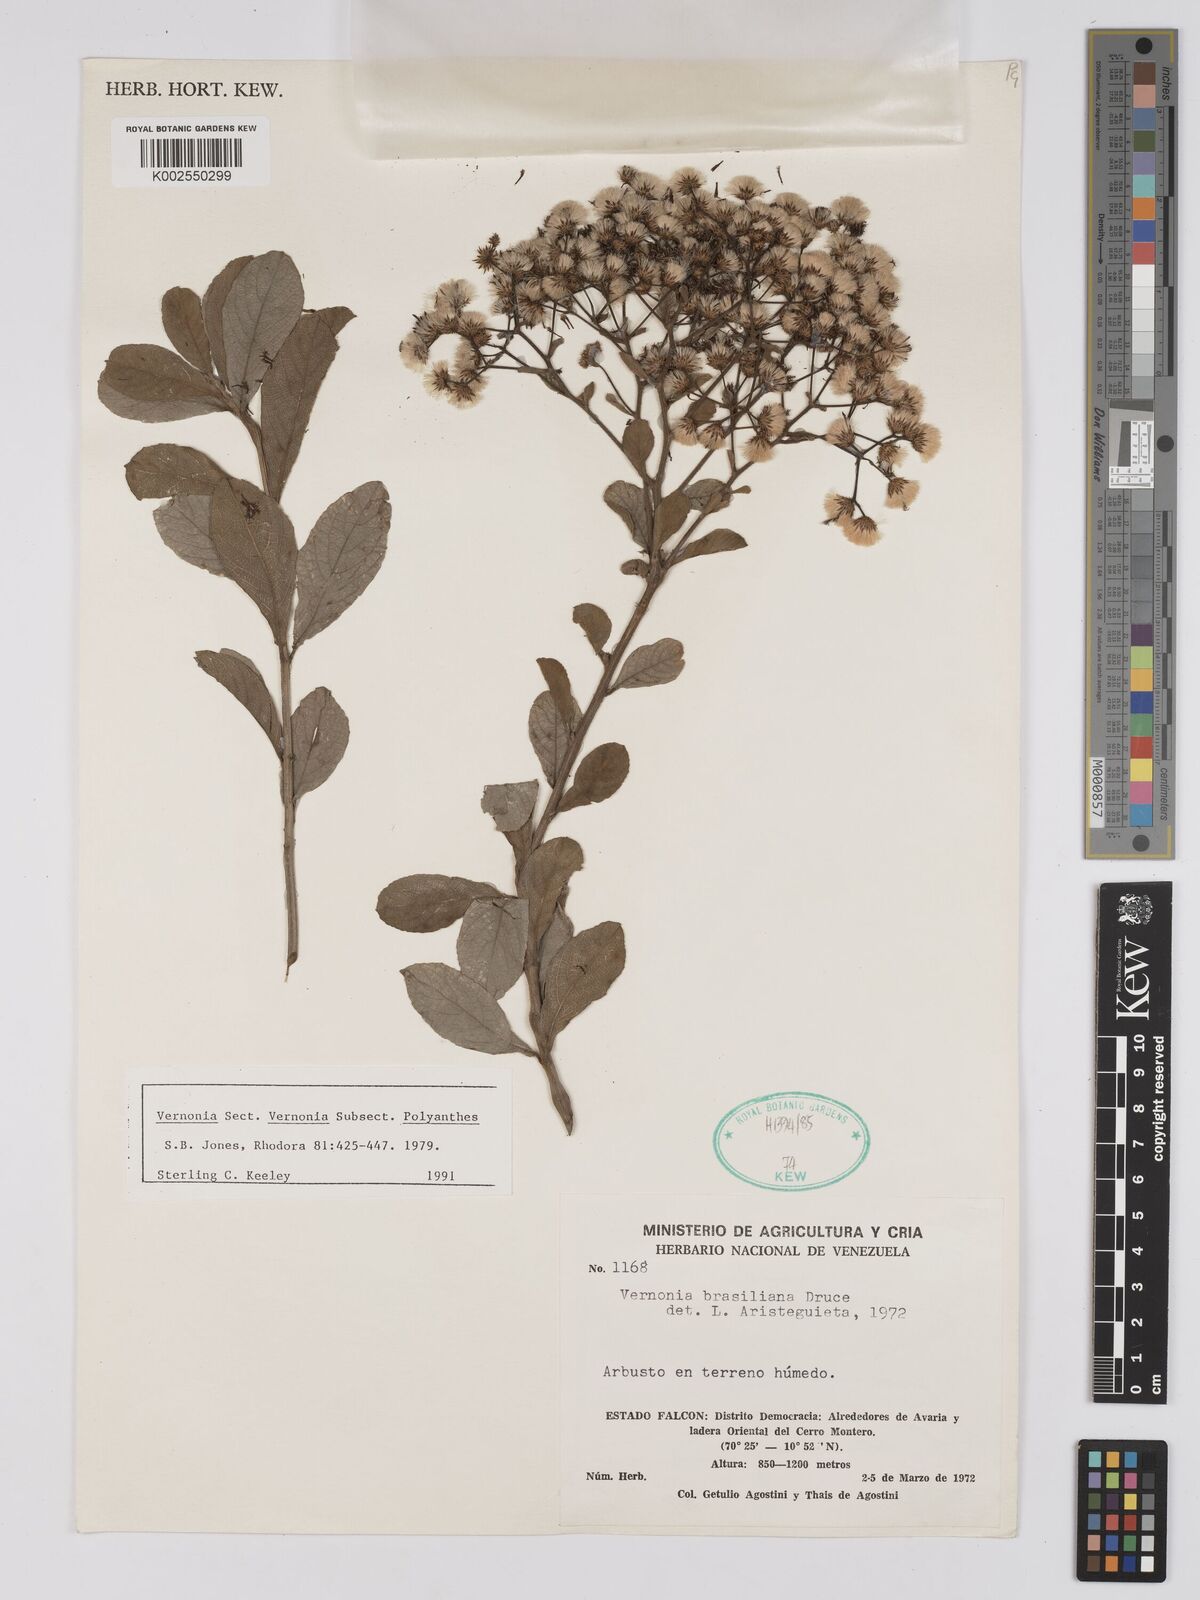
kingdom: Plantae
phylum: Tracheophyta
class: Magnoliopsida
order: Asterales
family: Asteraceae
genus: Vernonanthura
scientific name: Vernonanthura brasiliana
